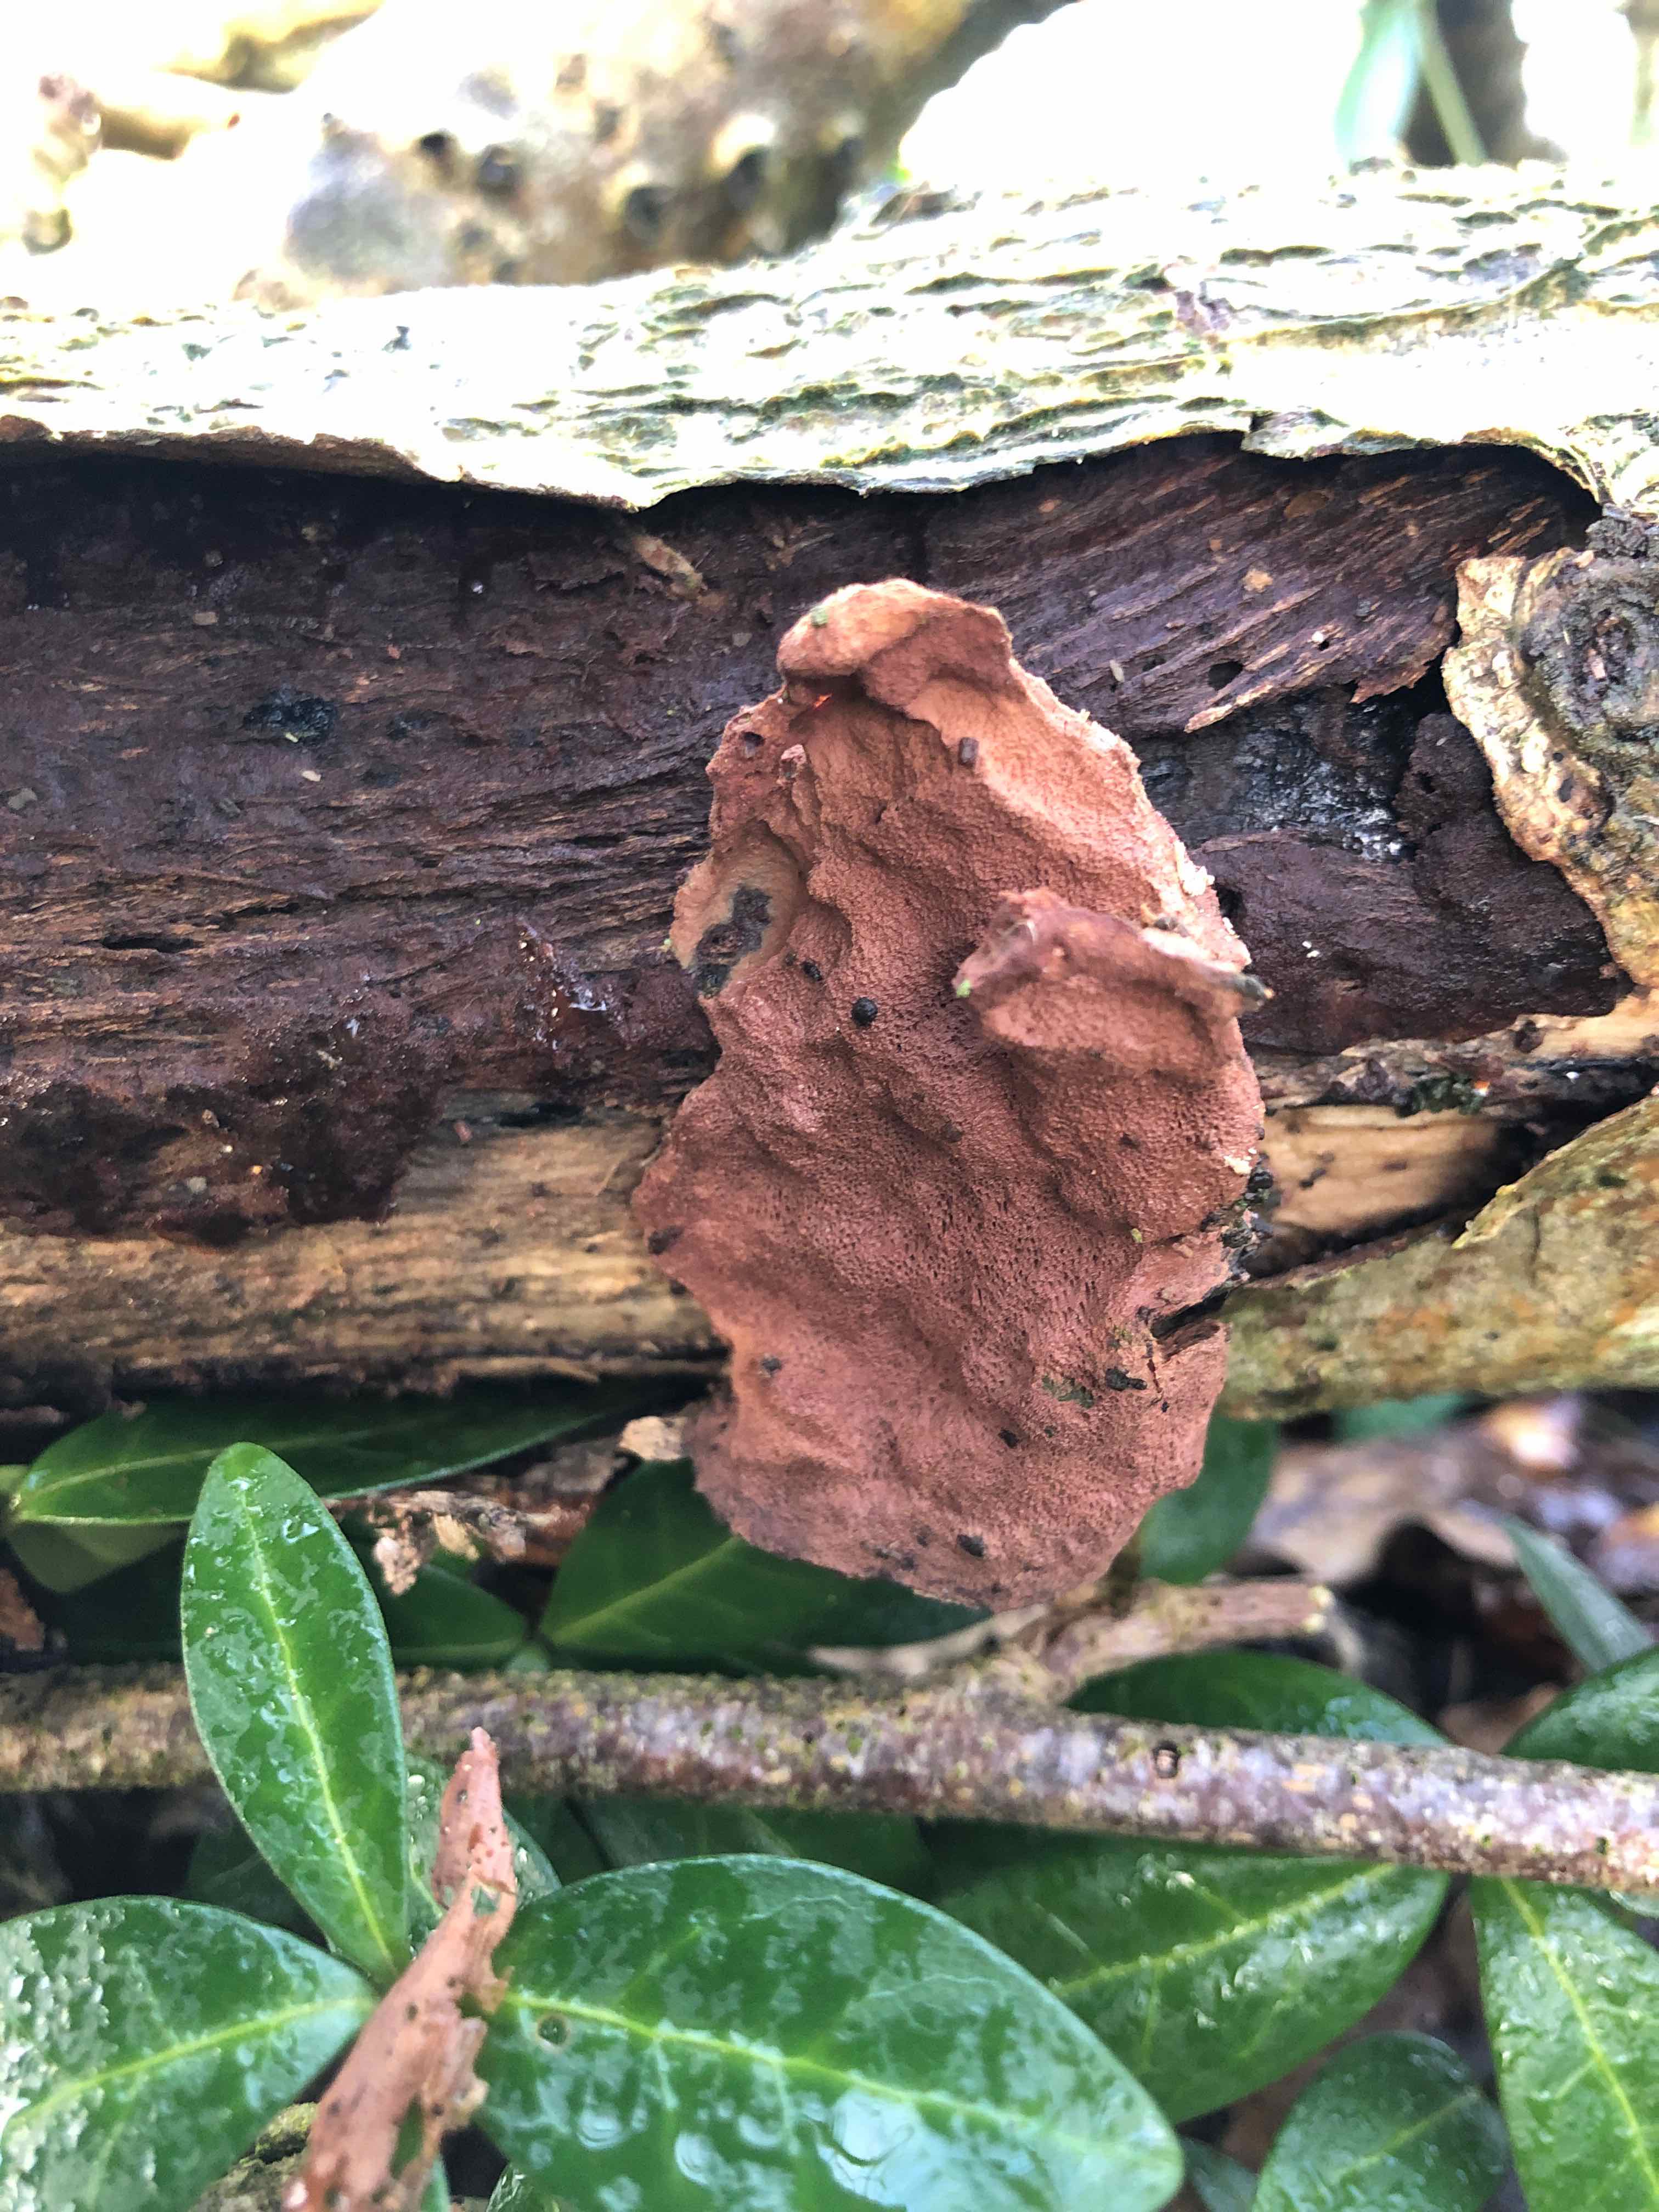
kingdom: Fungi
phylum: Basidiomycota
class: Agaricomycetes
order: Polyporales
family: Phanerochaetaceae
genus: Hapalopilus
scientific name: Hapalopilus rutilans
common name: rødlig okkerporesvamp
